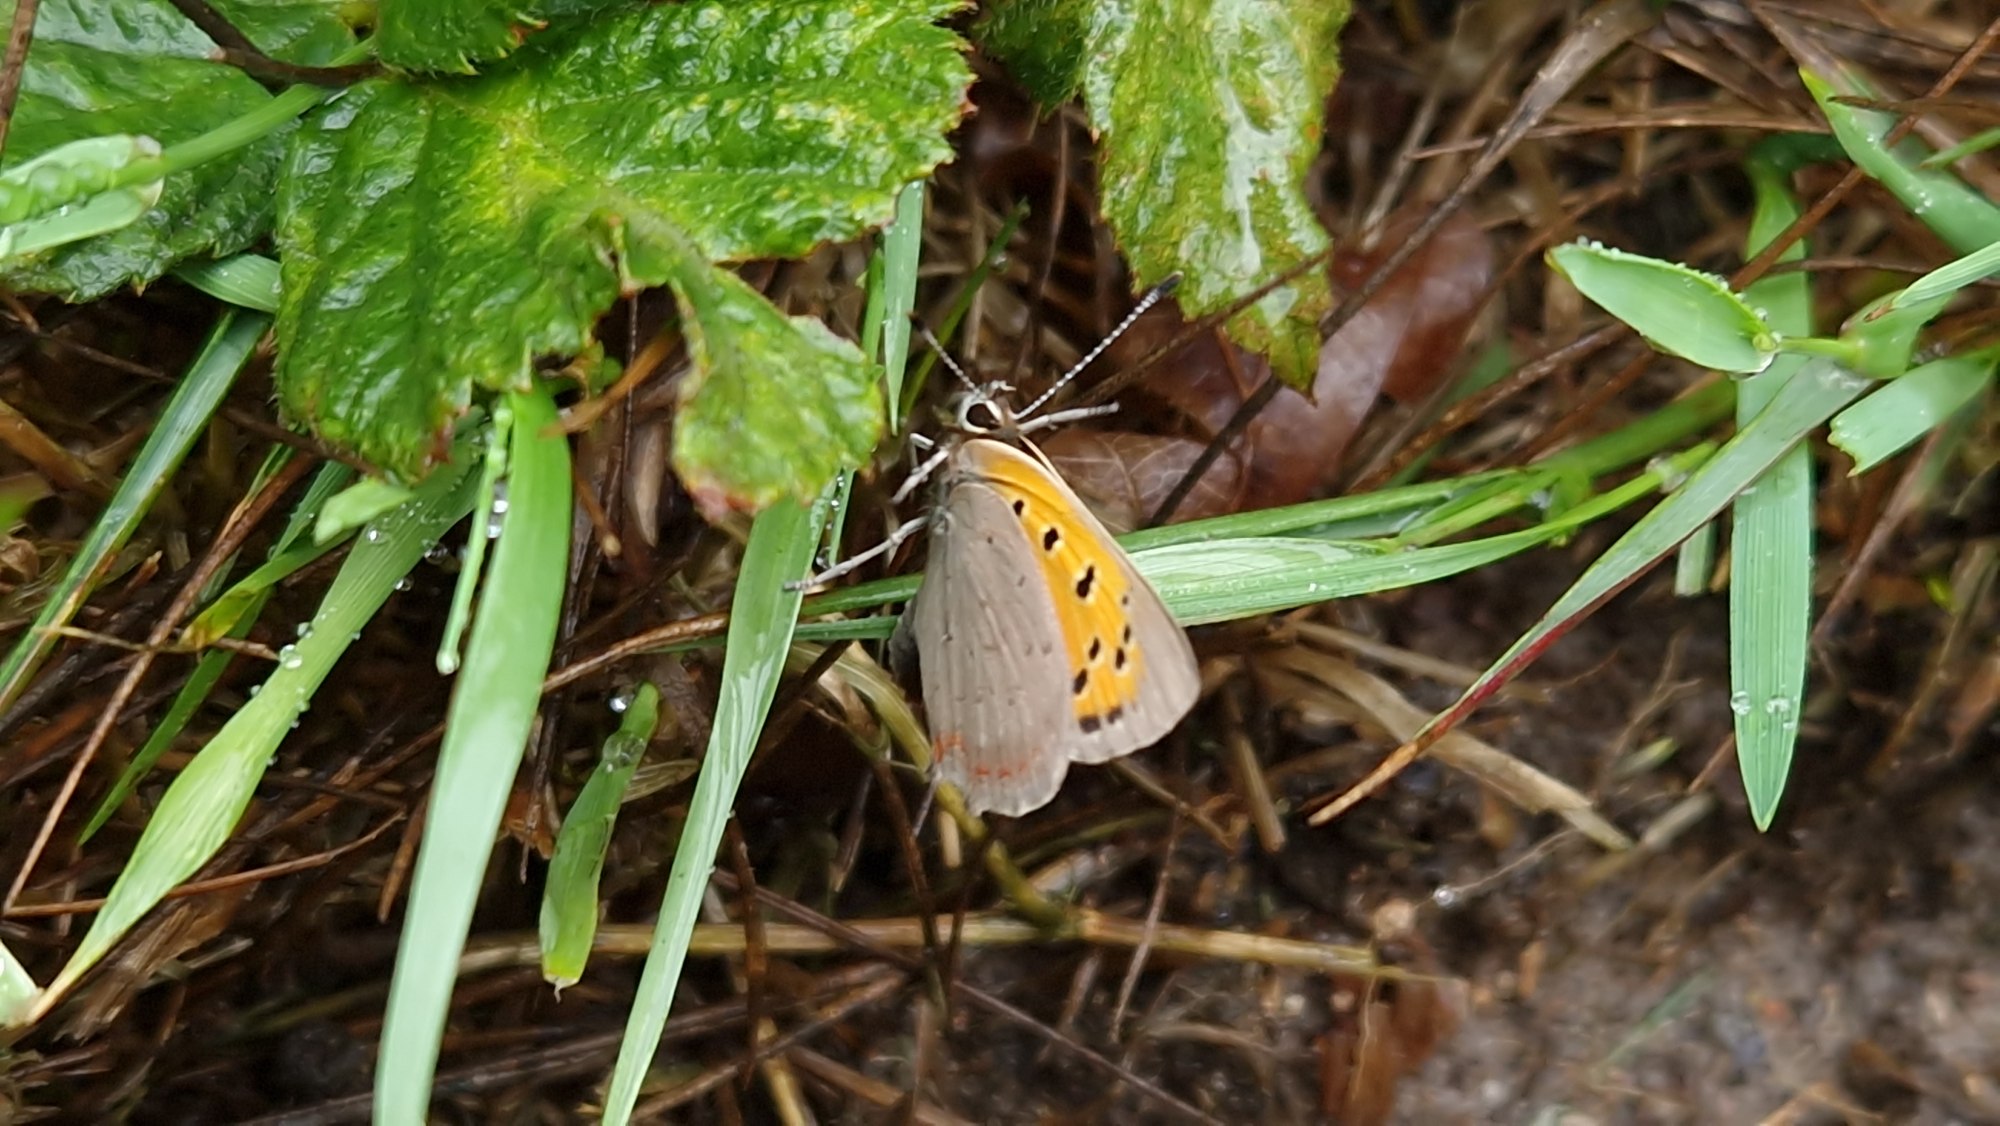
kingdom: Animalia
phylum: Arthropoda
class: Insecta
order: Lepidoptera
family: Lycaenidae
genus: Lycaena
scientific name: Lycaena phlaeas
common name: Lille ildfugl
